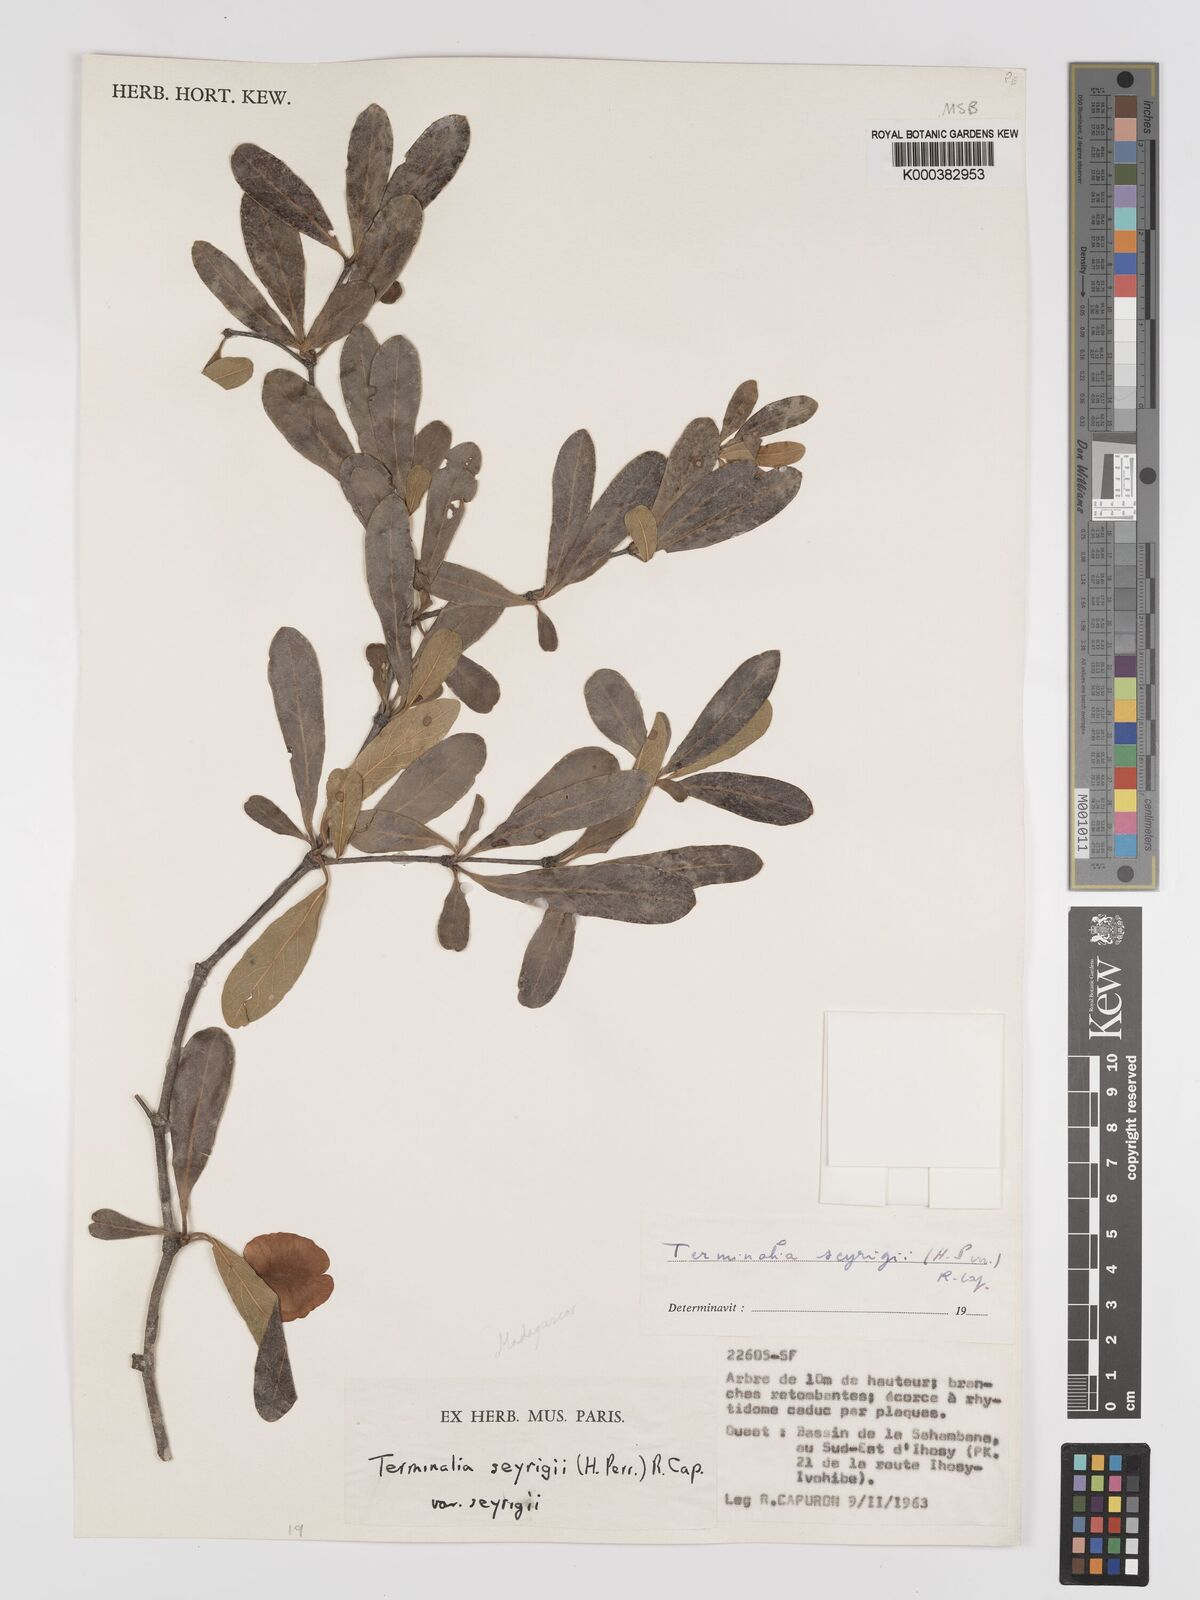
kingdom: Plantae
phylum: Tracheophyta
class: Magnoliopsida
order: Myrtales
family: Combretaceae
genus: Terminalia
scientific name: Terminalia
